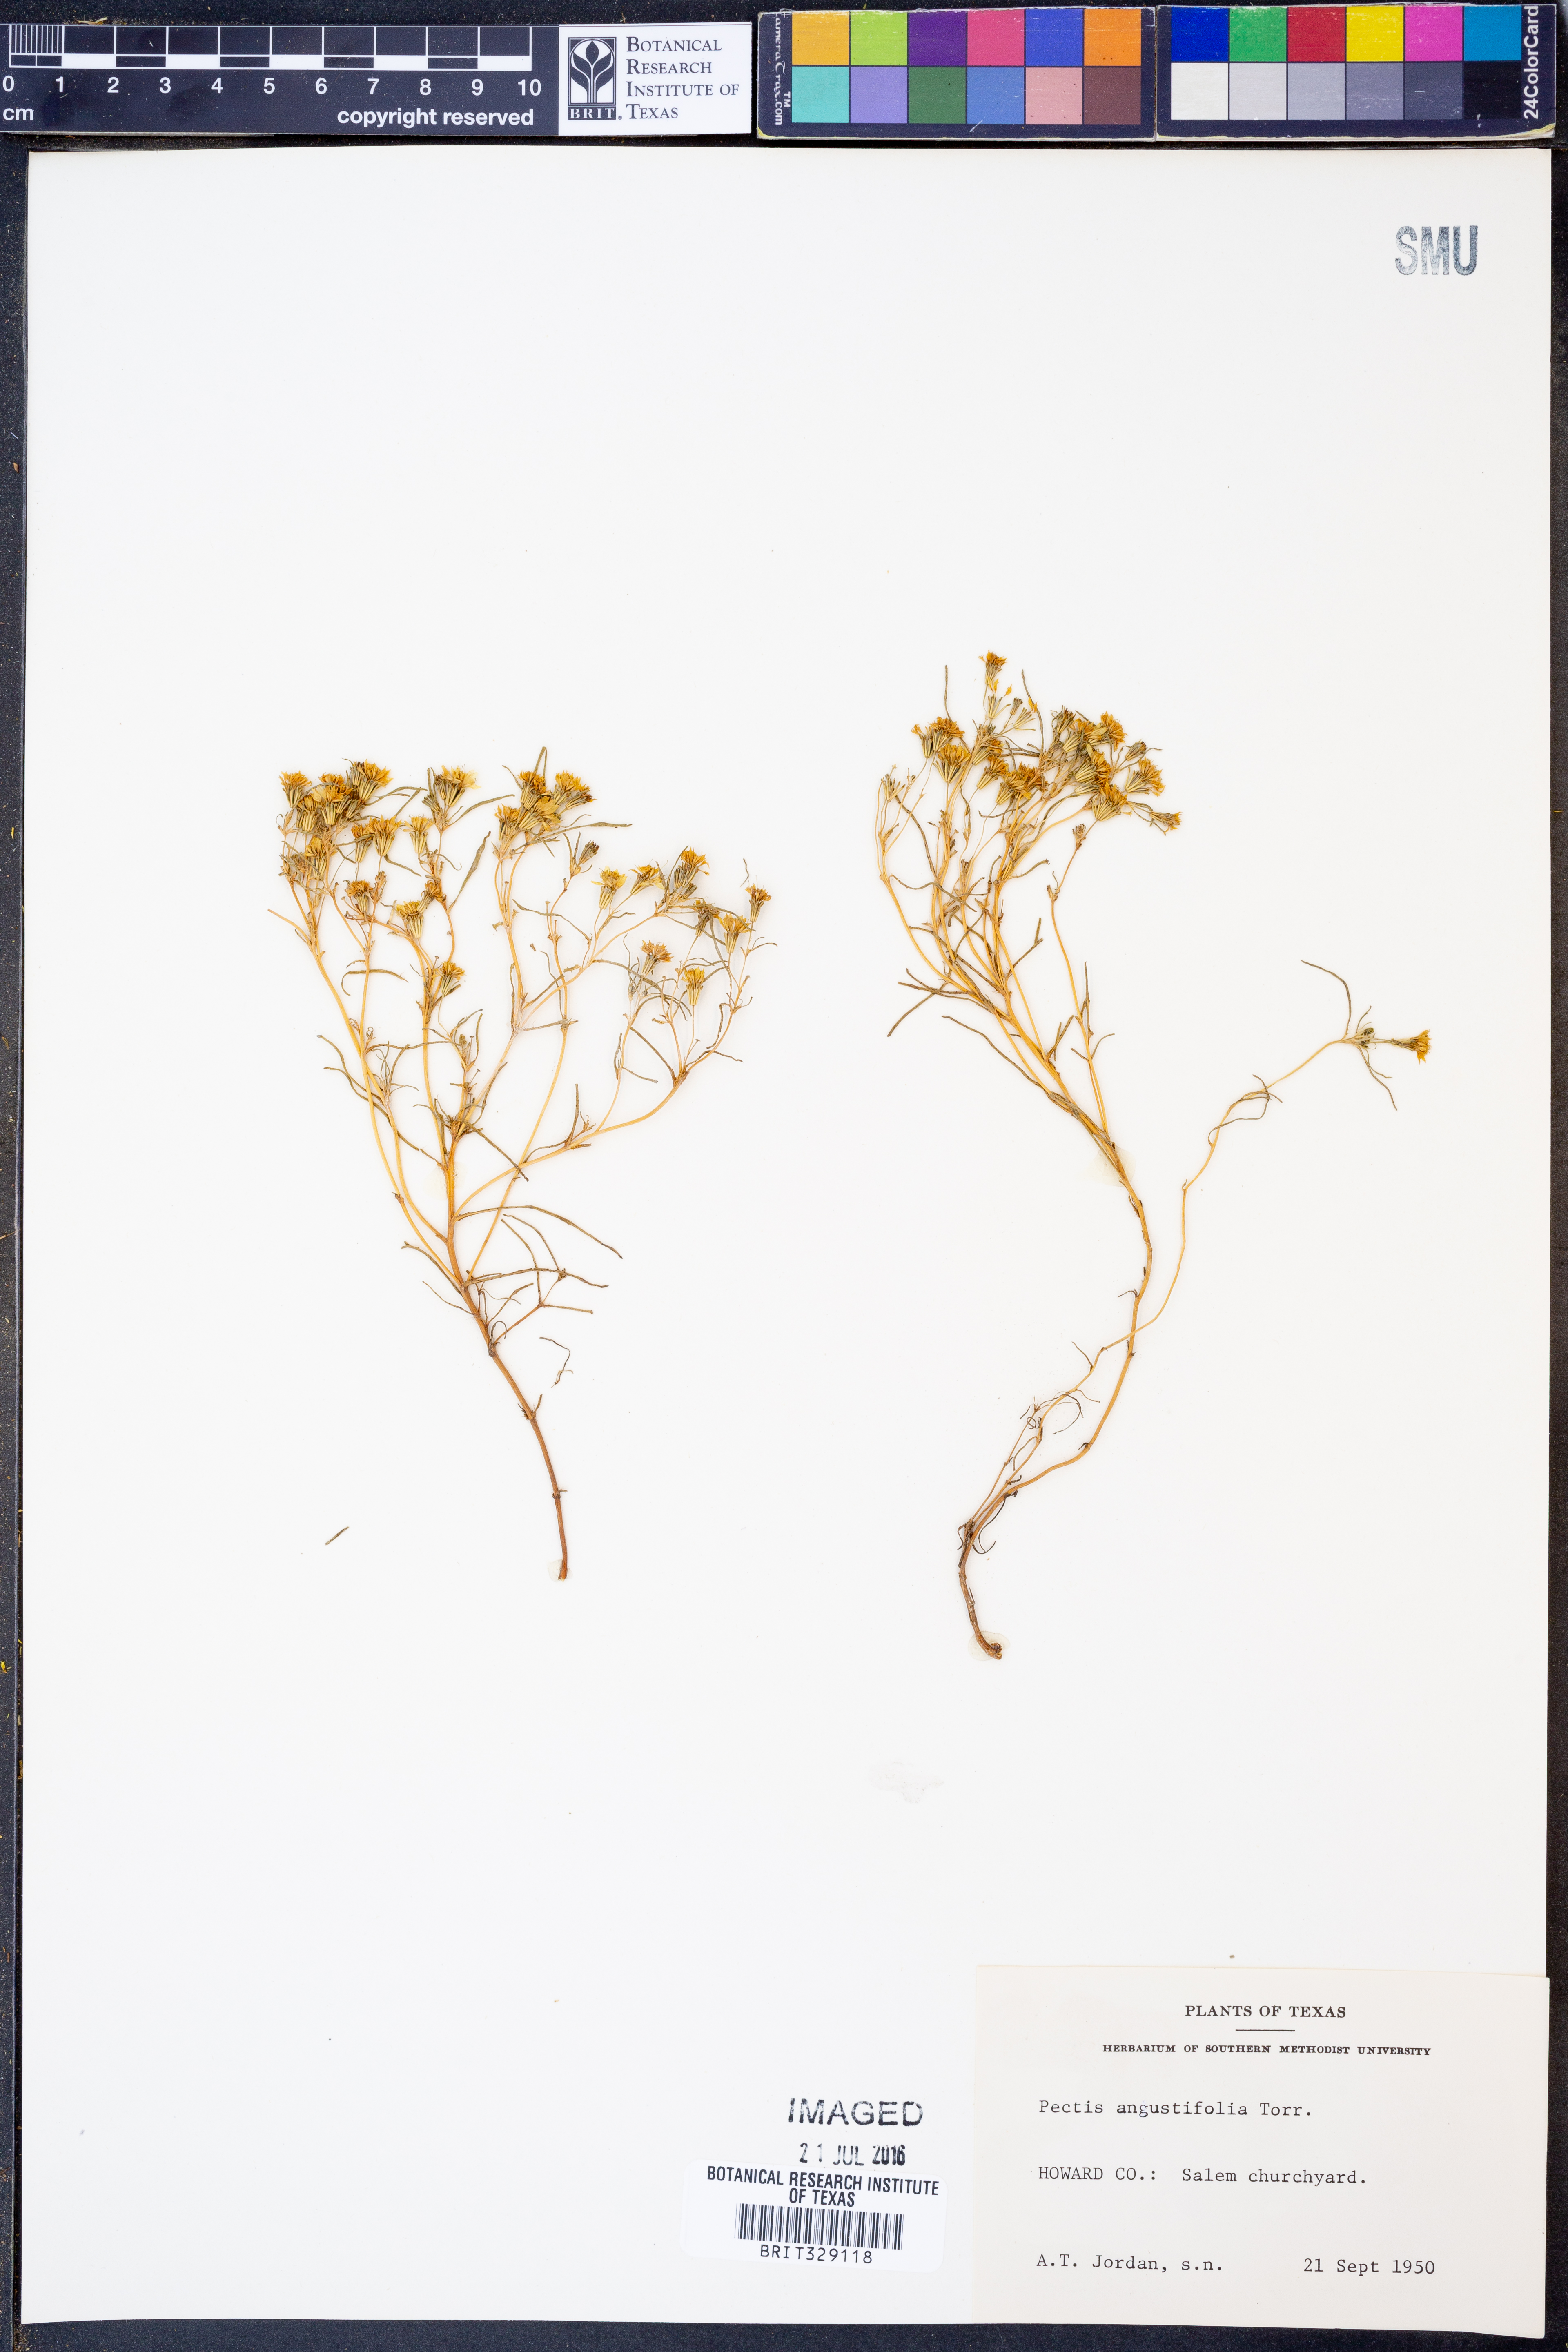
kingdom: Plantae
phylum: Tracheophyta
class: Magnoliopsida
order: Asterales
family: Asteraceae
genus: Pectis
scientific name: Pectis angustifolia
